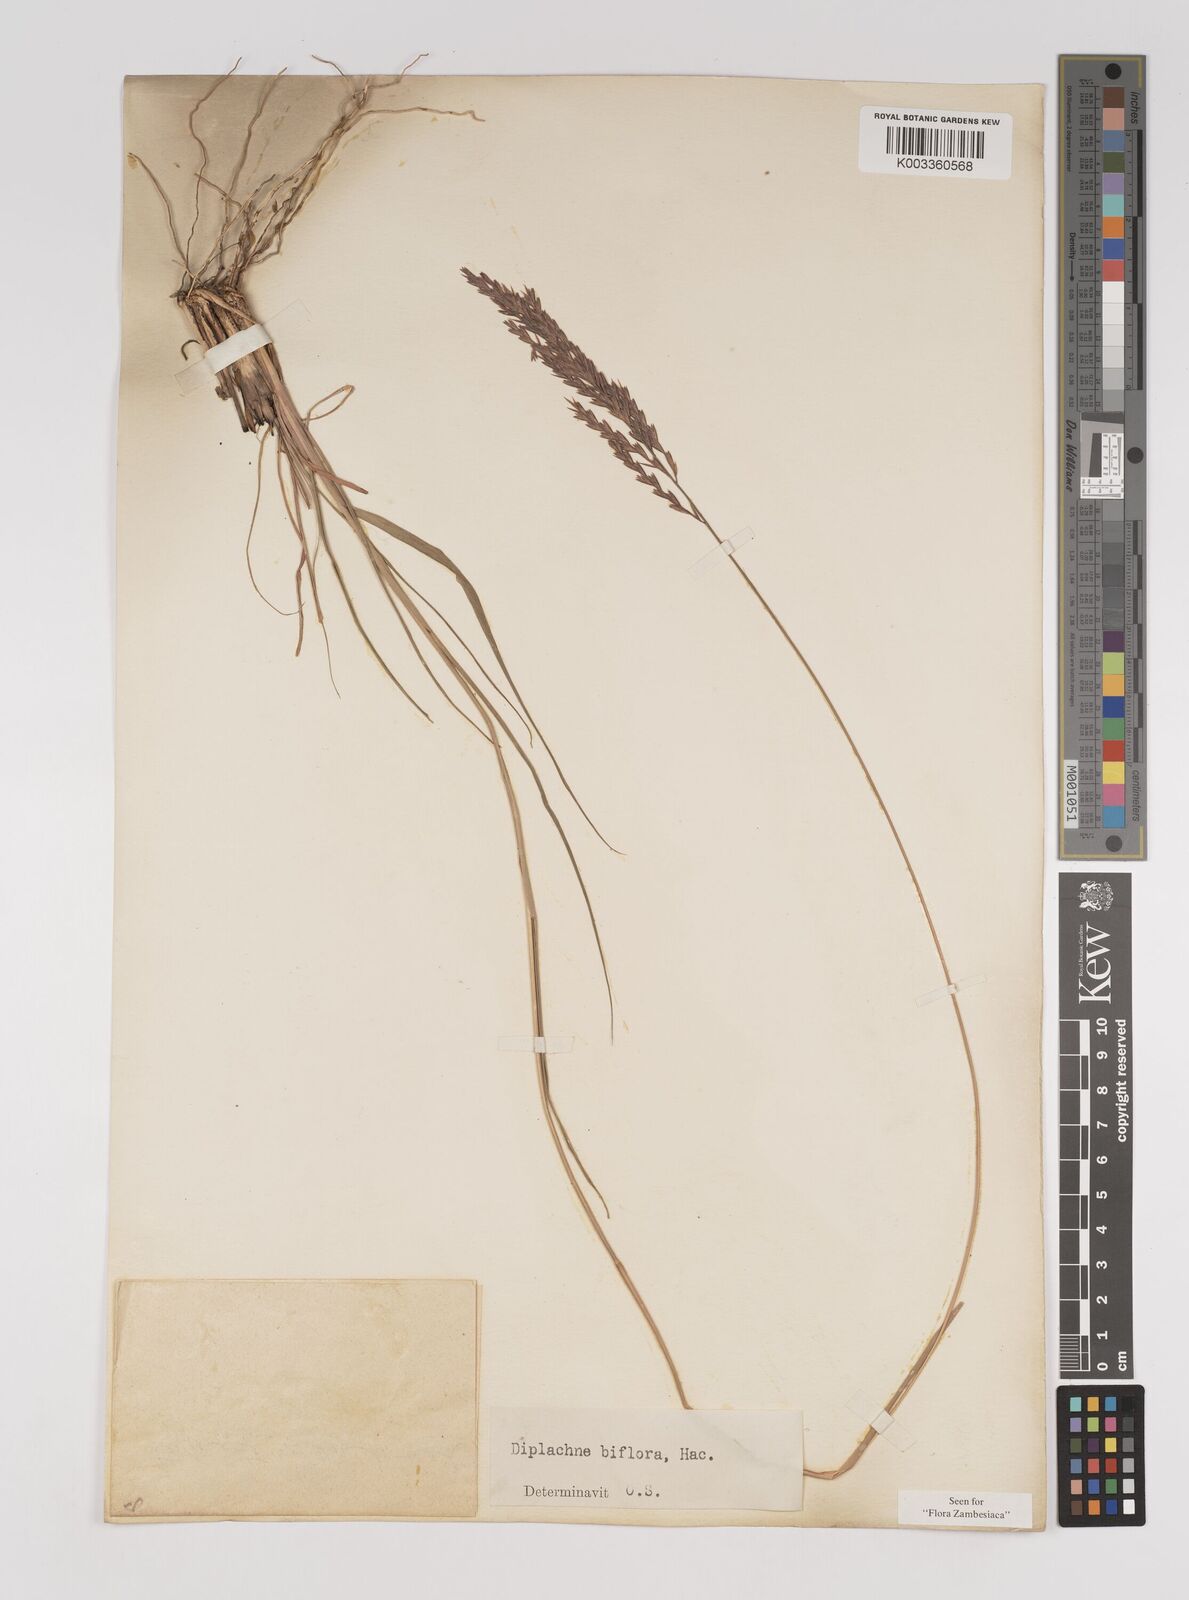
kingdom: Plantae
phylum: Tracheophyta
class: Liliopsida
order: Poales
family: Poaceae
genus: Bewsia
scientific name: Bewsia biflora
